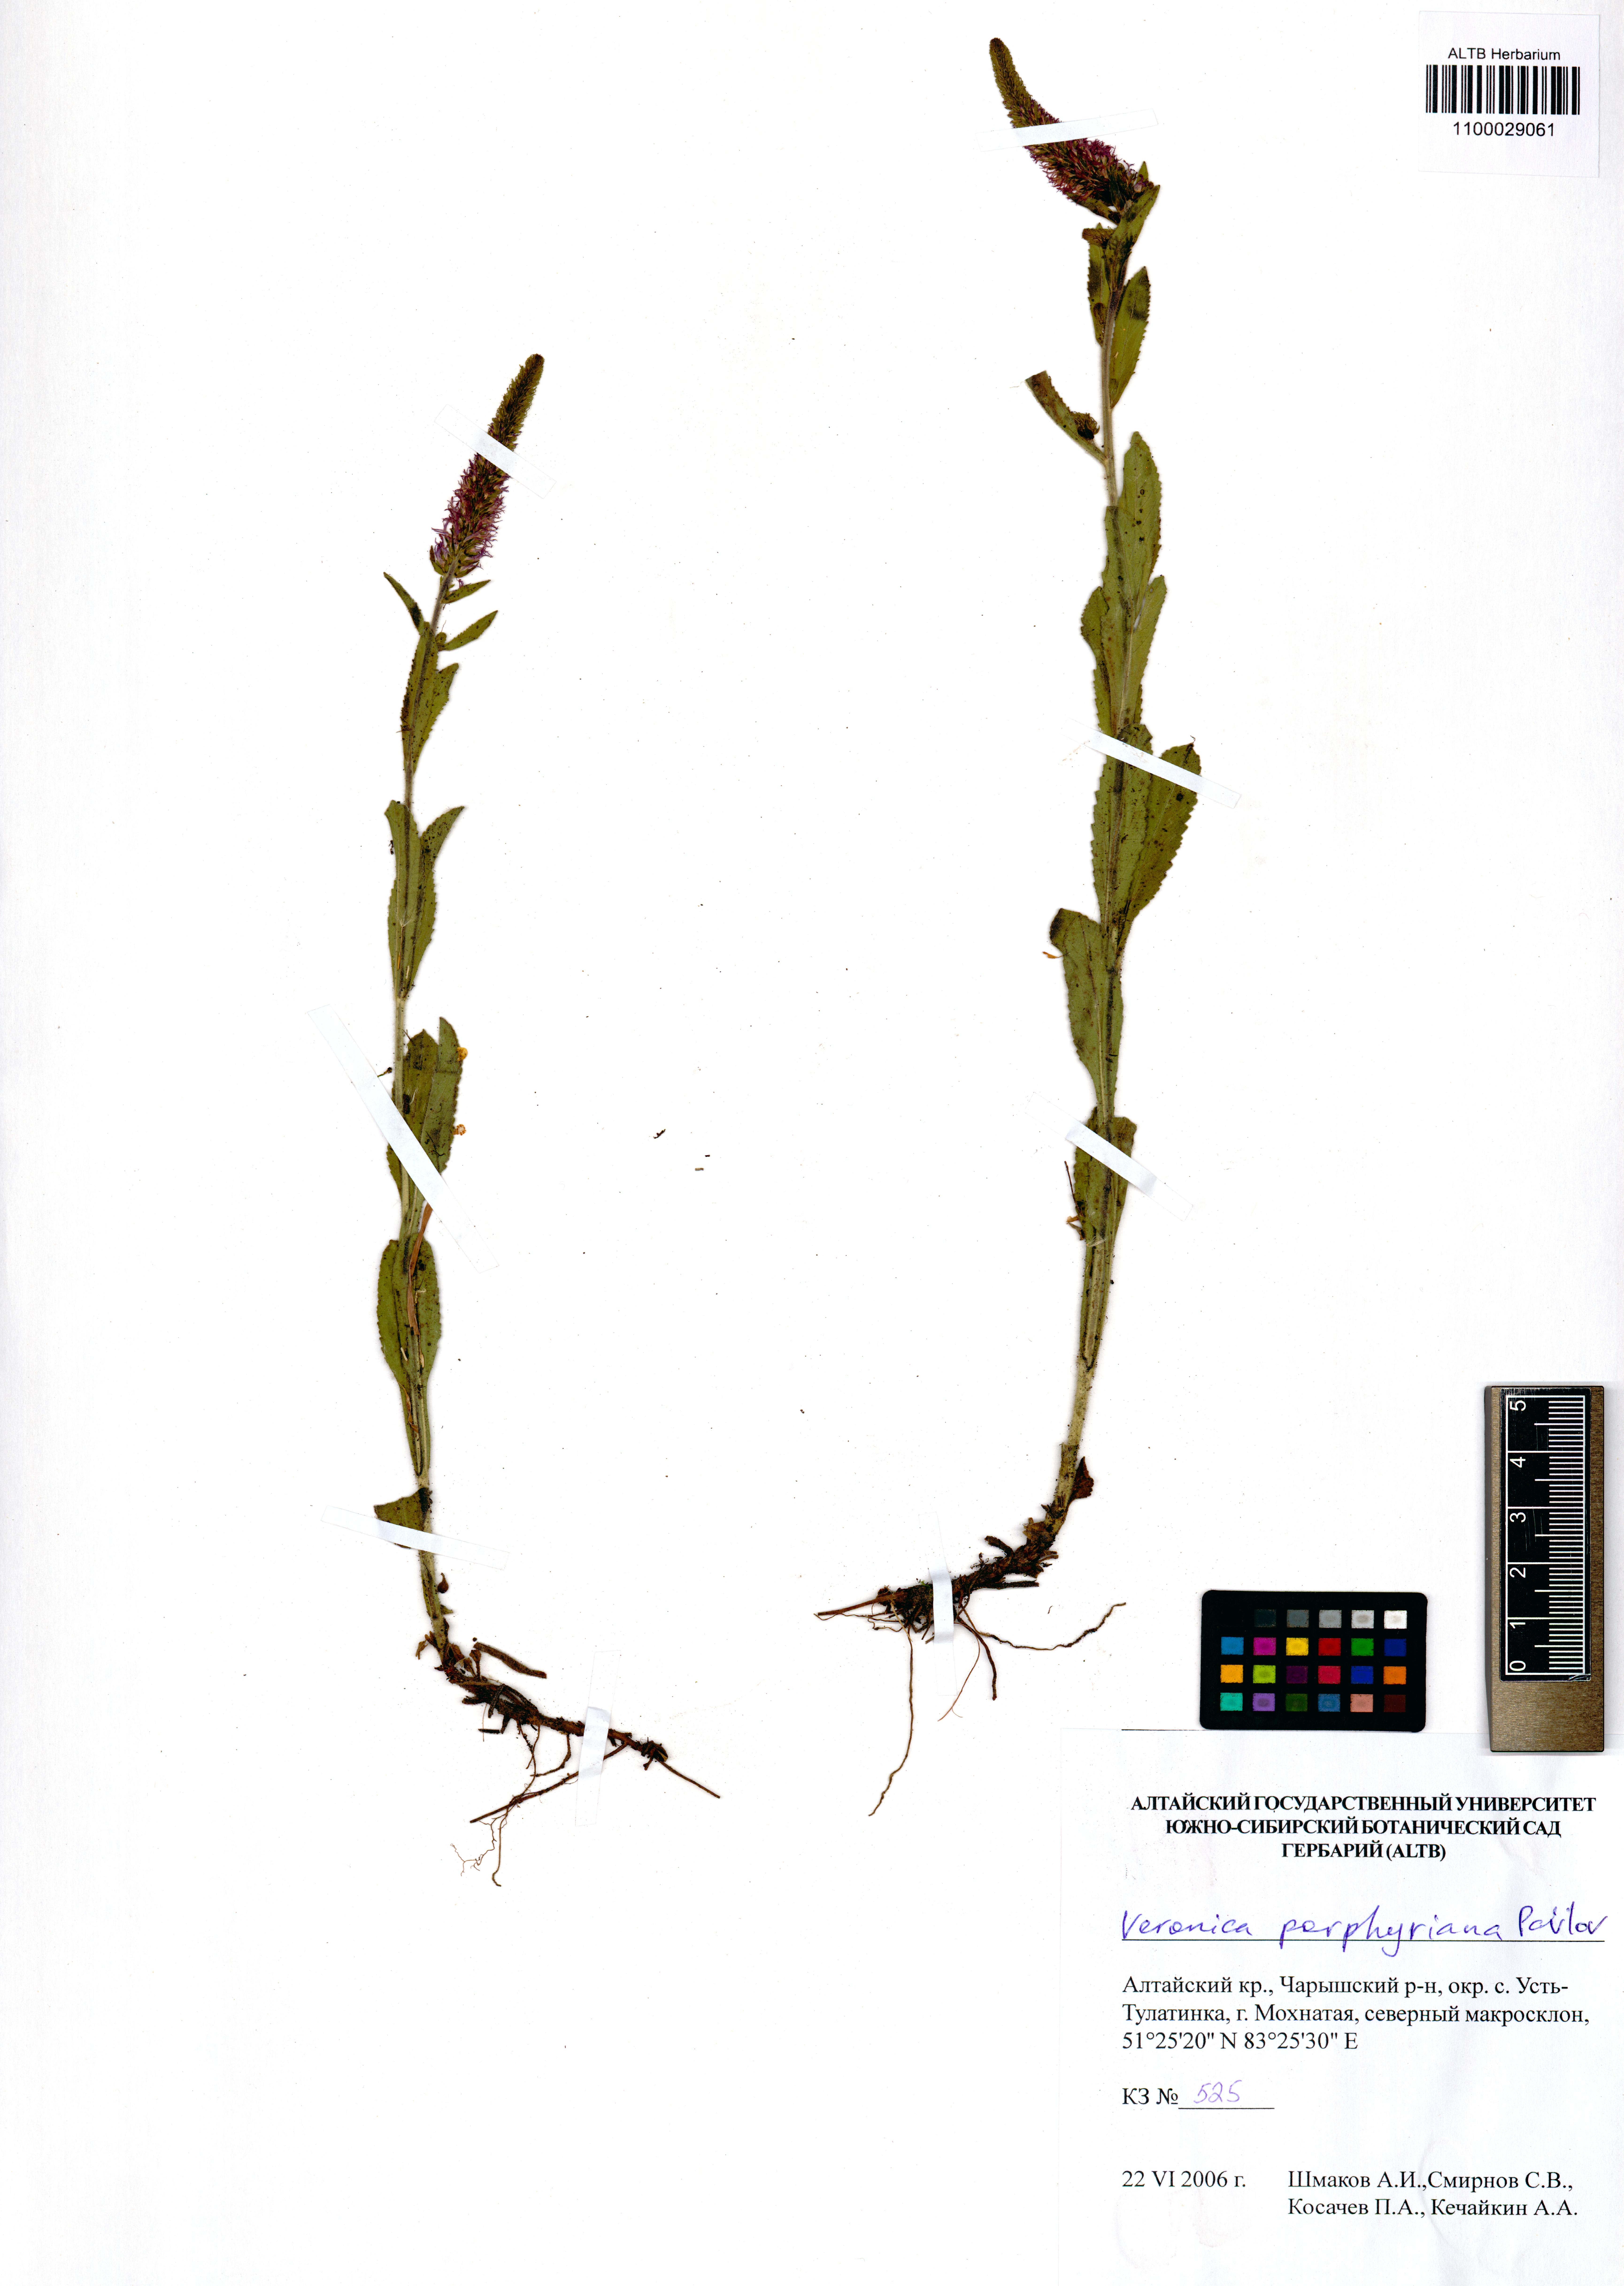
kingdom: Plantae
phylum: Tracheophyta
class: Magnoliopsida
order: Lamiales
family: Plantaginaceae
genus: Veronica
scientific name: Veronica porphyriana
